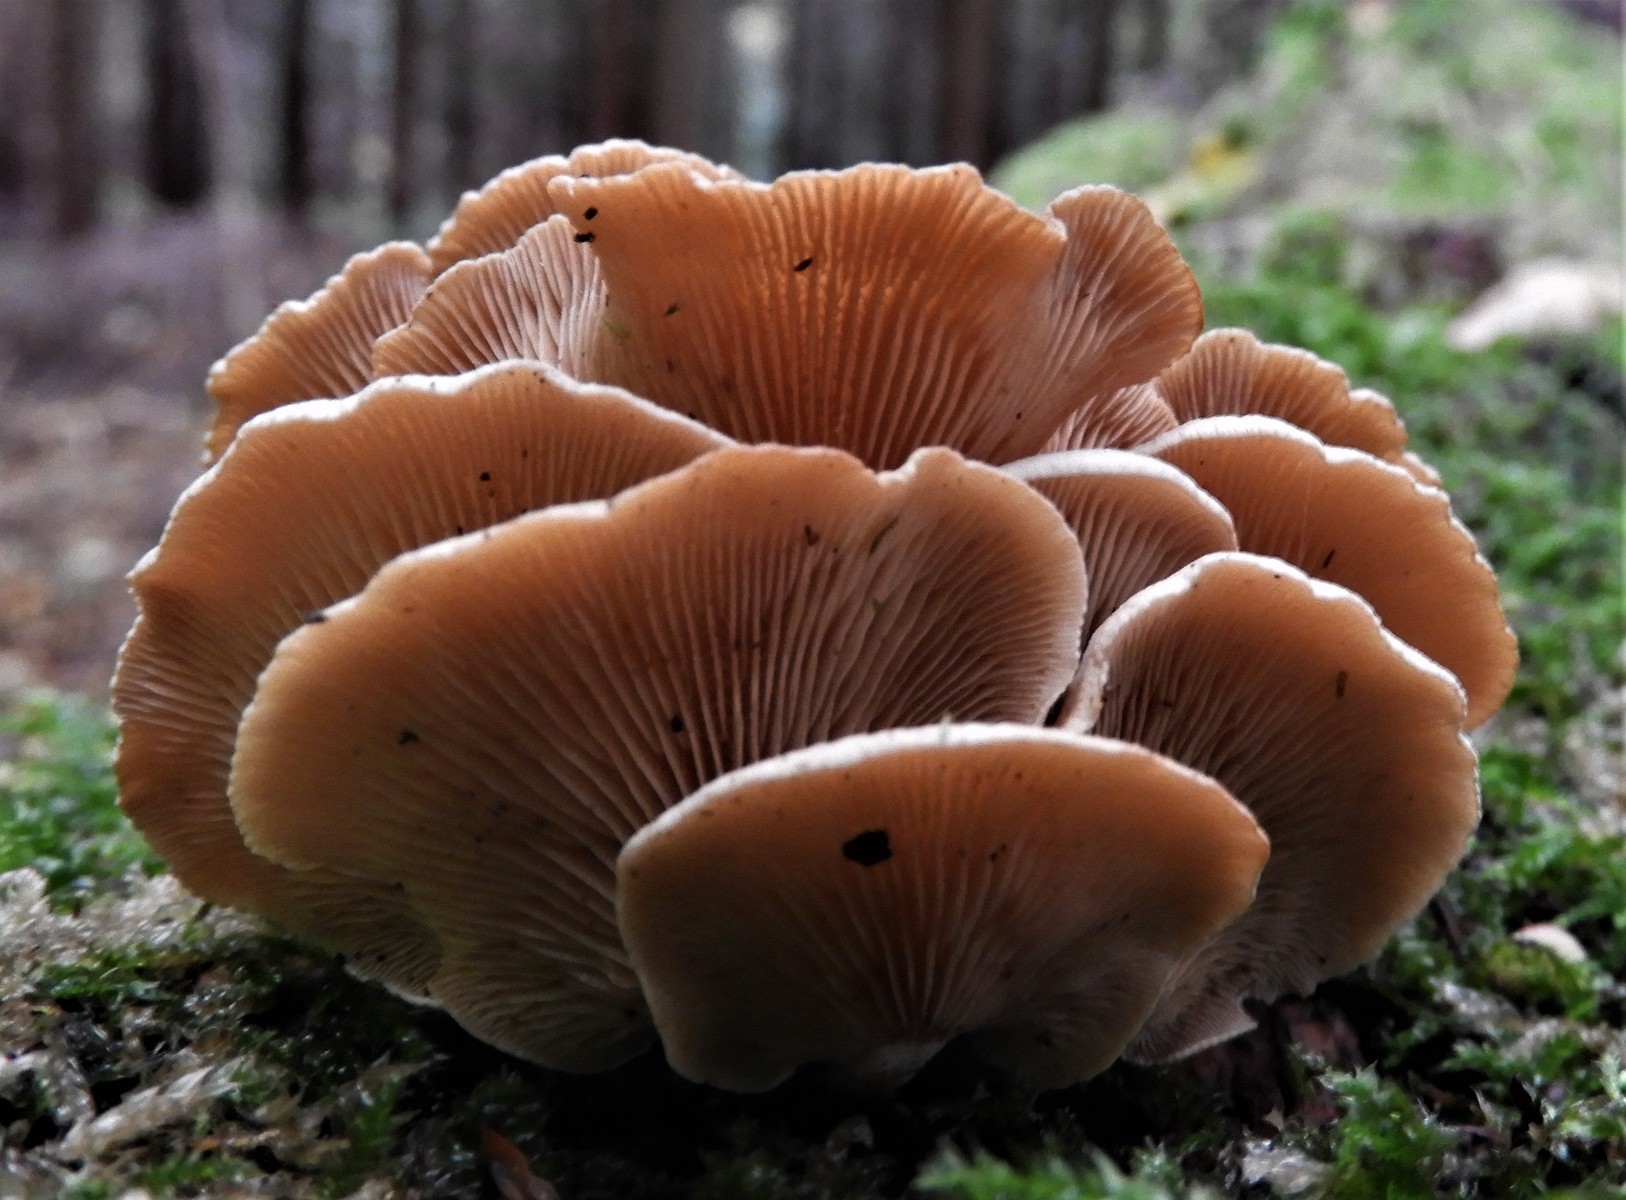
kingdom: Fungi
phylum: Basidiomycota
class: Agaricomycetes
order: Agaricales
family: Mycenaceae
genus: Panellus
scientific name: Panellus stipticus
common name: kliddet epaulethat
